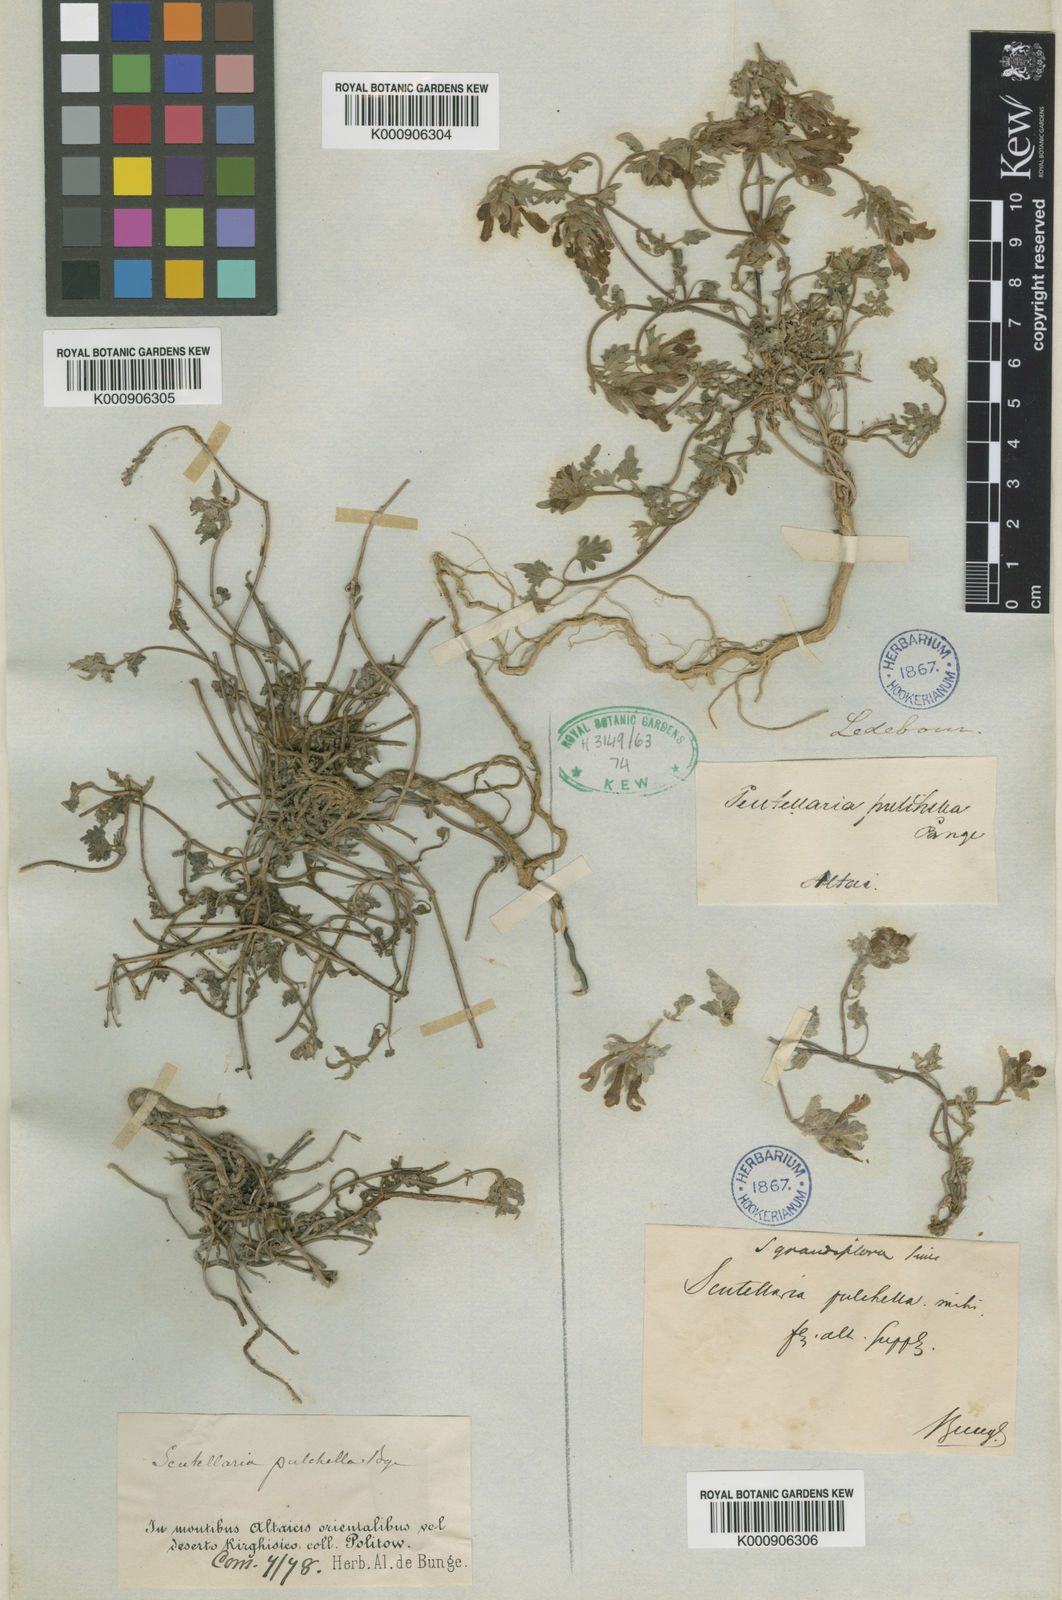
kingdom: Plantae
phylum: Tracheophyta
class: Magnoliopsida
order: Lamiales
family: Lamiaceae
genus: Scutellaria
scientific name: Scutellaria grandiflora
